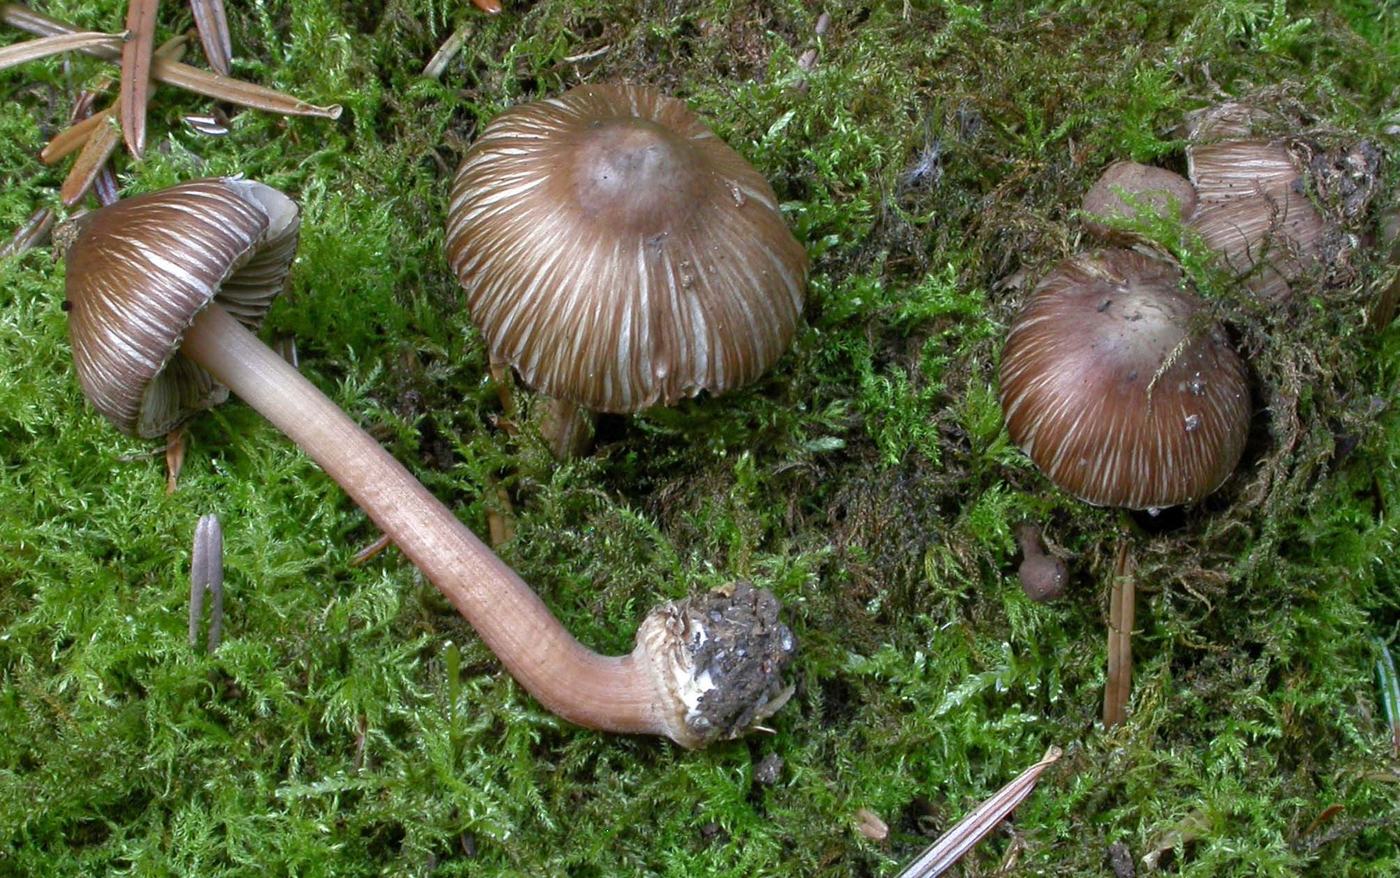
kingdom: Fungi
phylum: Basidiomycota
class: Agaricomycetes
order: Agaricales
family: Inocybaceae
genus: Inocybe
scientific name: Inocybe asterospora
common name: stjernesporet trævlhat
